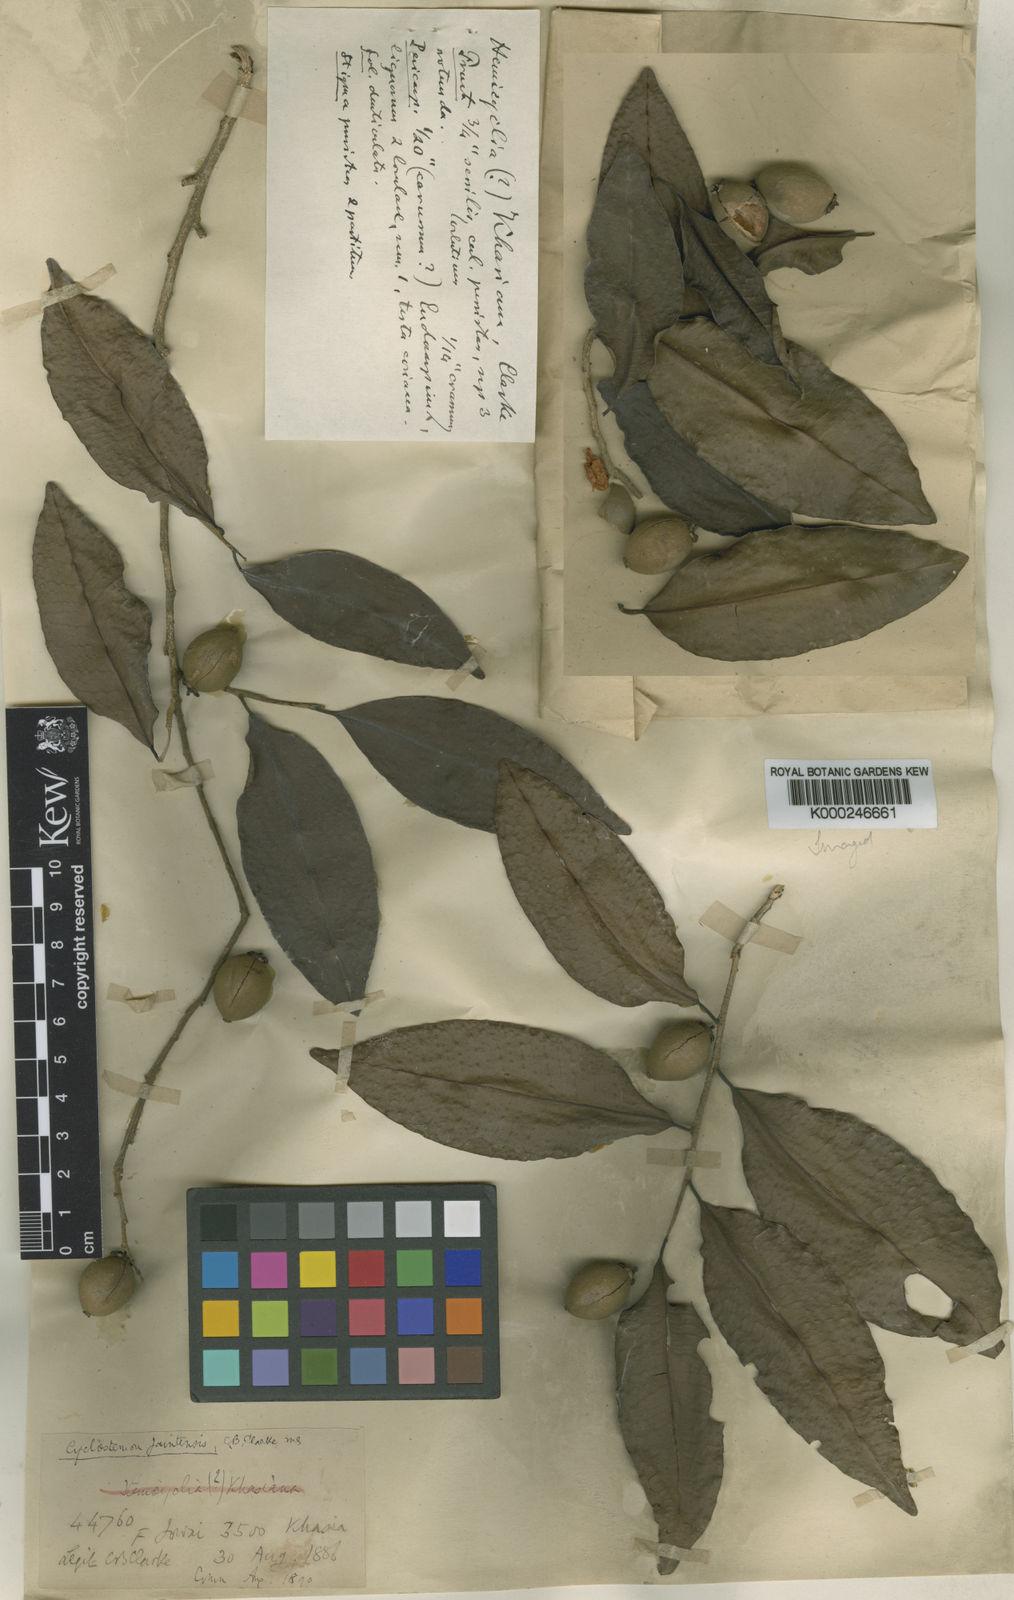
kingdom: Plantae
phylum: Tracheophyta
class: Magnoliopsida
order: Malpighiales
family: Putranjivaceae
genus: Drypetes
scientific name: Drypetes jaintensis
